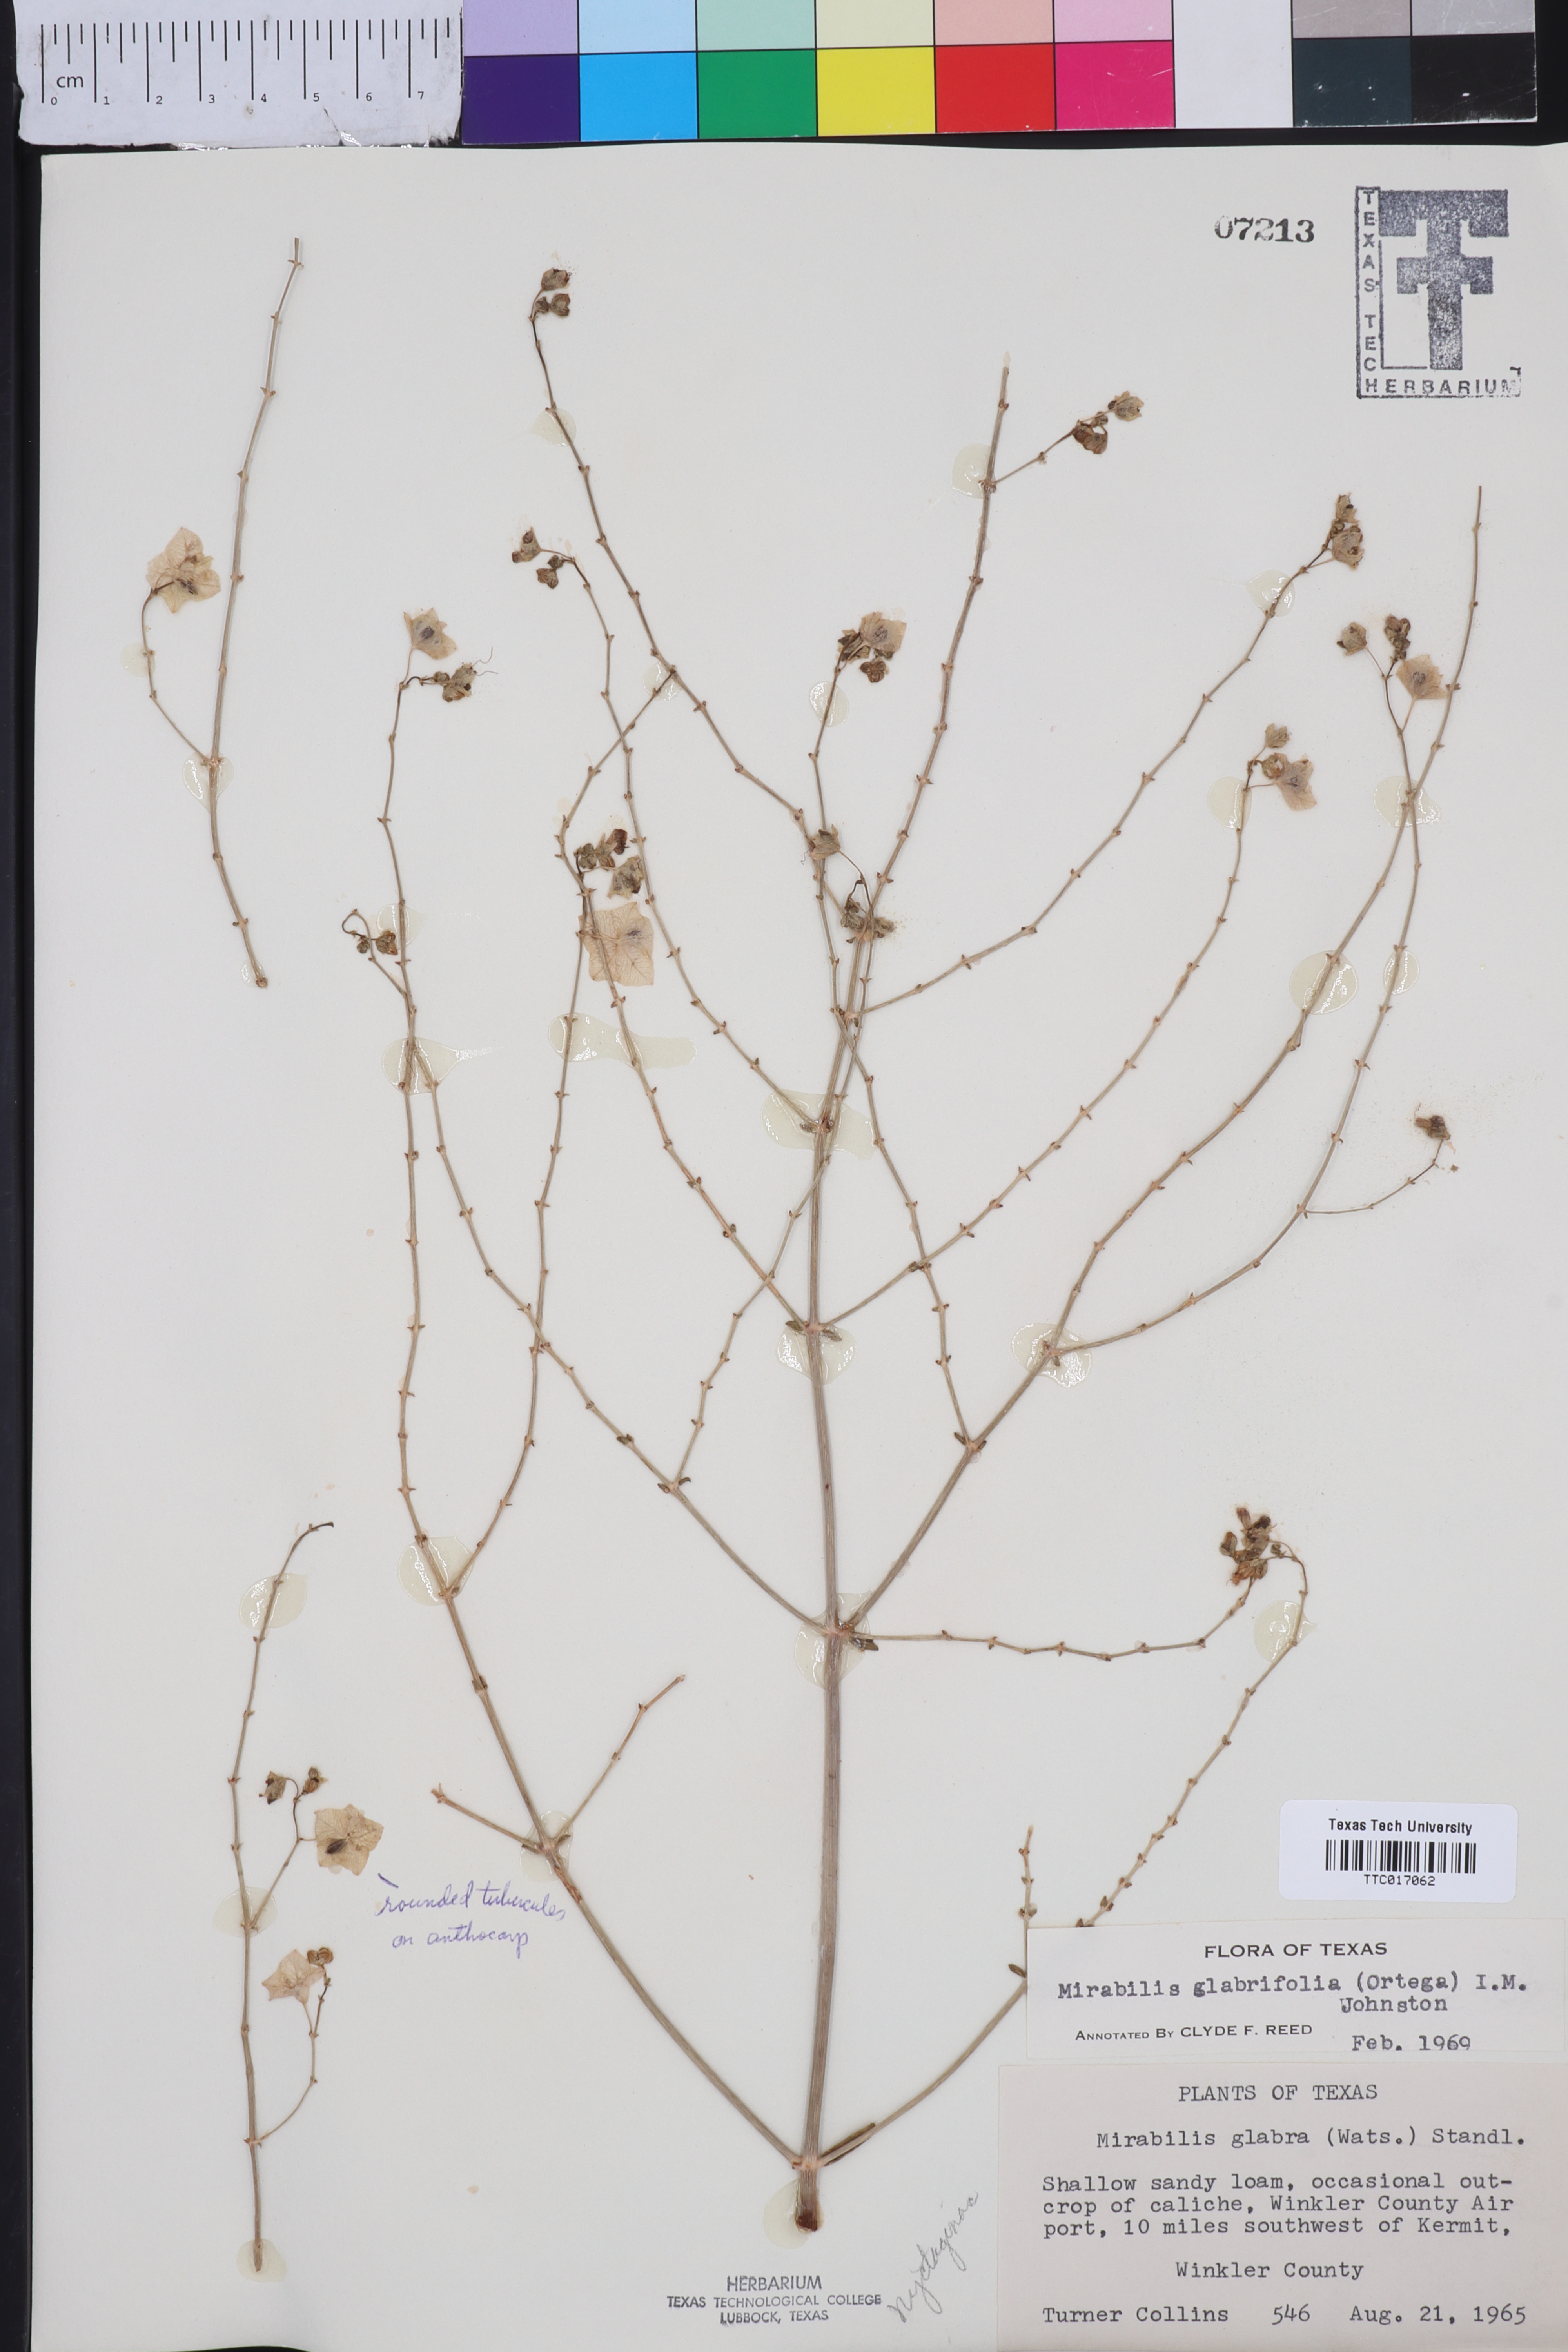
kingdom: Plantae
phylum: Tracheophyta
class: Magnoliopsida
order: Caryophyllales
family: Nyctaginaceae
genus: Mirabilis
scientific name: Mirabilis glabrifolia
